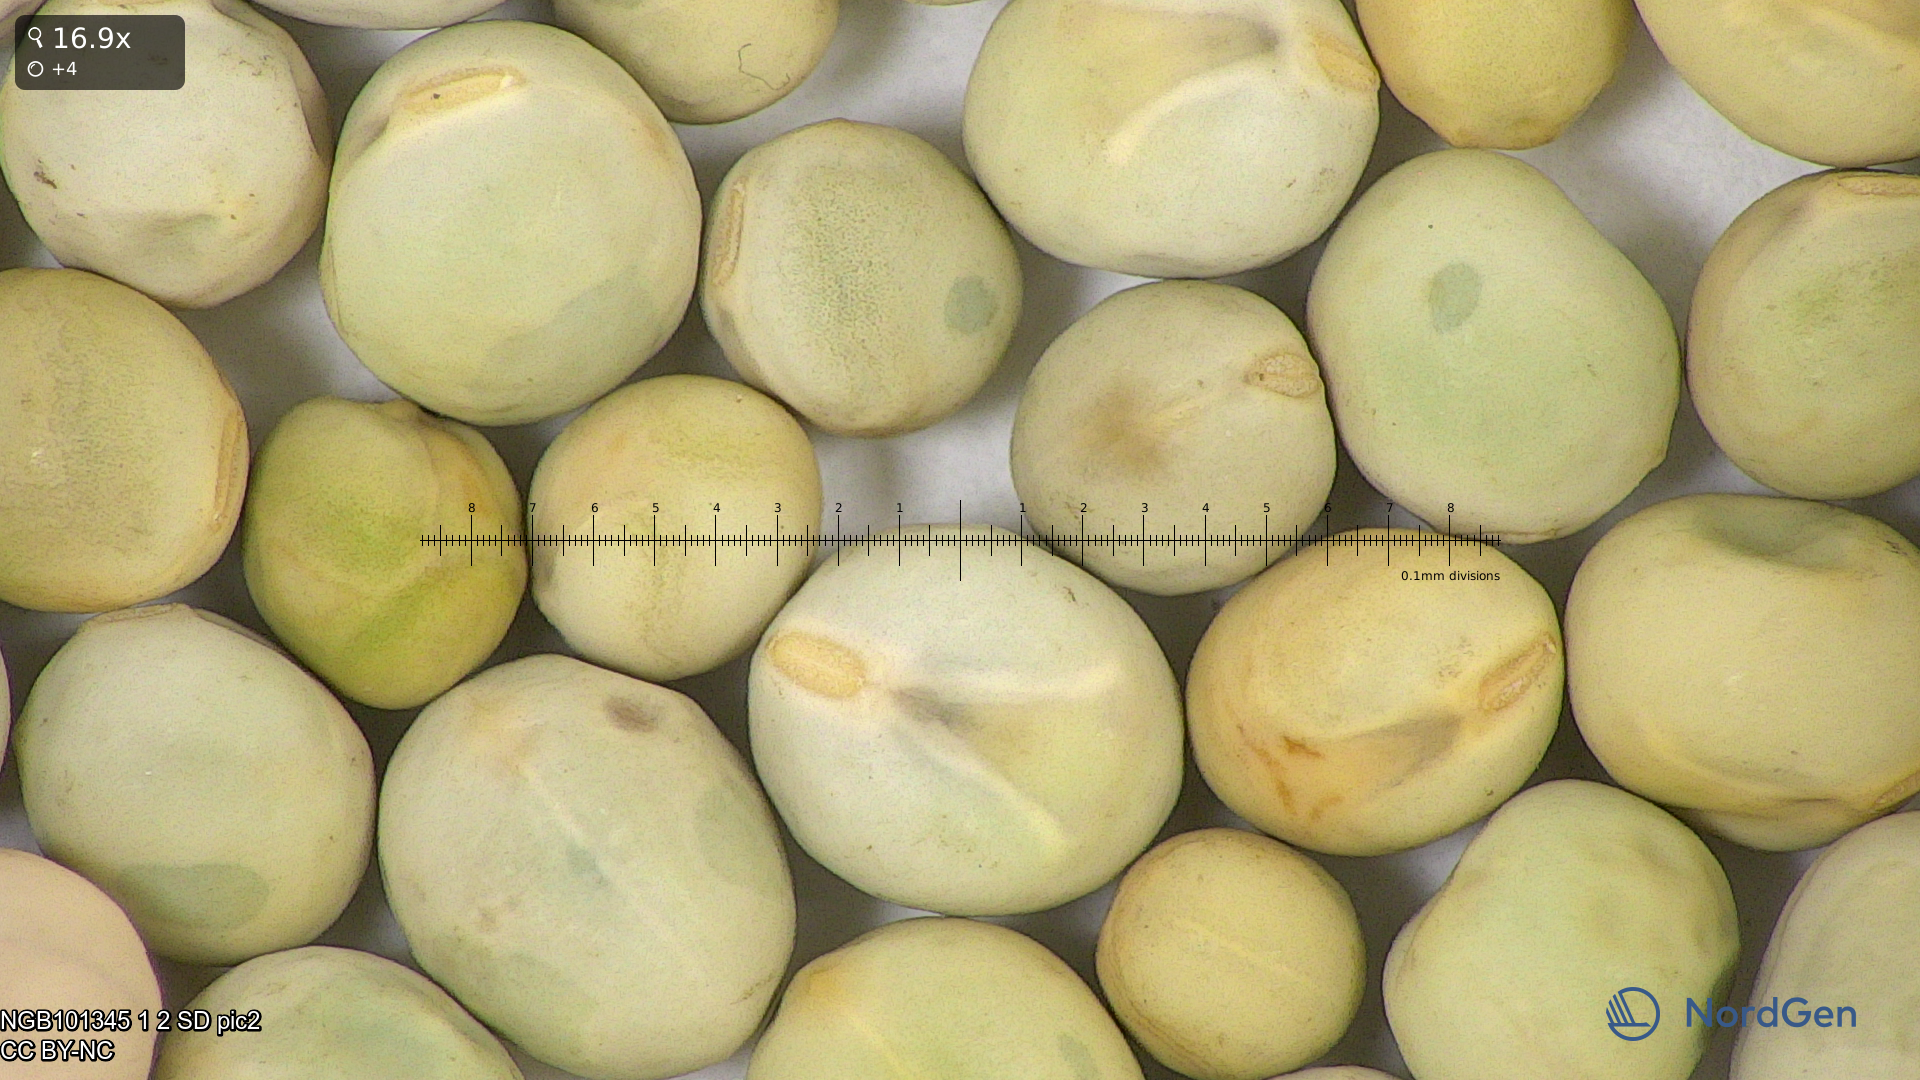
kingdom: Plantae
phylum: Tracheophyta
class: Magnoliopsida
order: Fabales
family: Fabaceae
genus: Lathyrus
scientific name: Lathyrus oleraceus
